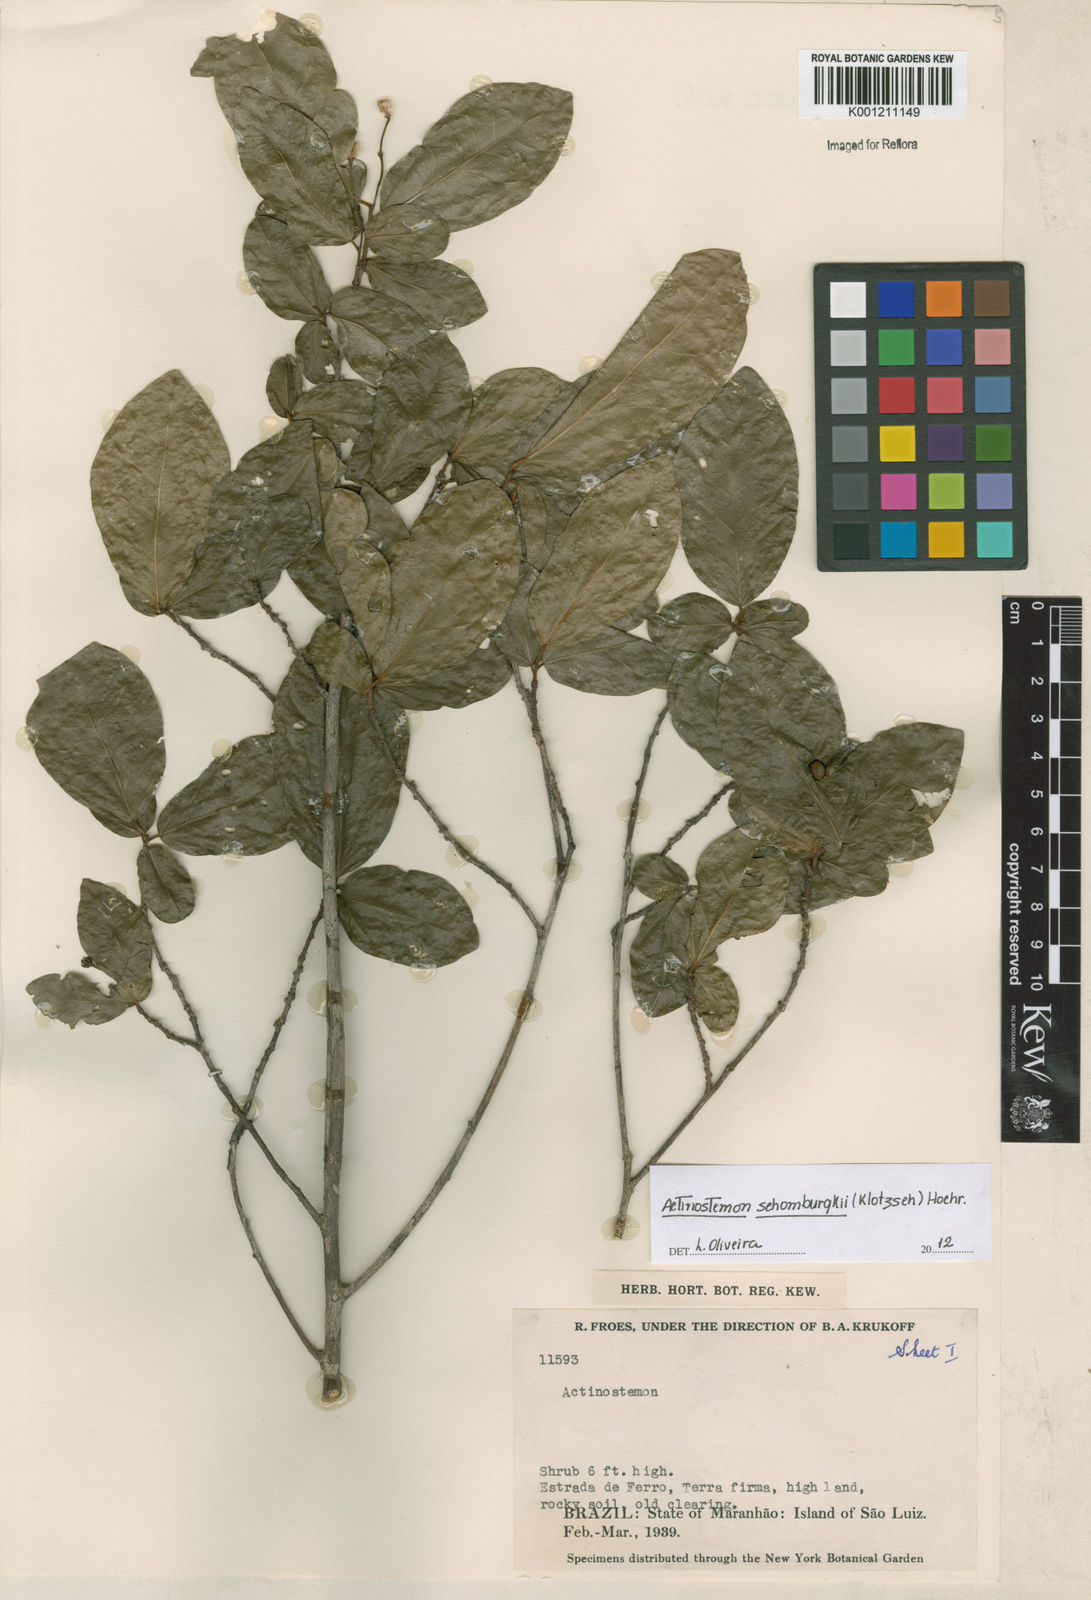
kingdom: Plantae
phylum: Tracheophyta
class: Magnoliopsida
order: Malpighiales
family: Euphorbiaceae
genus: Actinostemon
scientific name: Actinostemon schomburgkii
